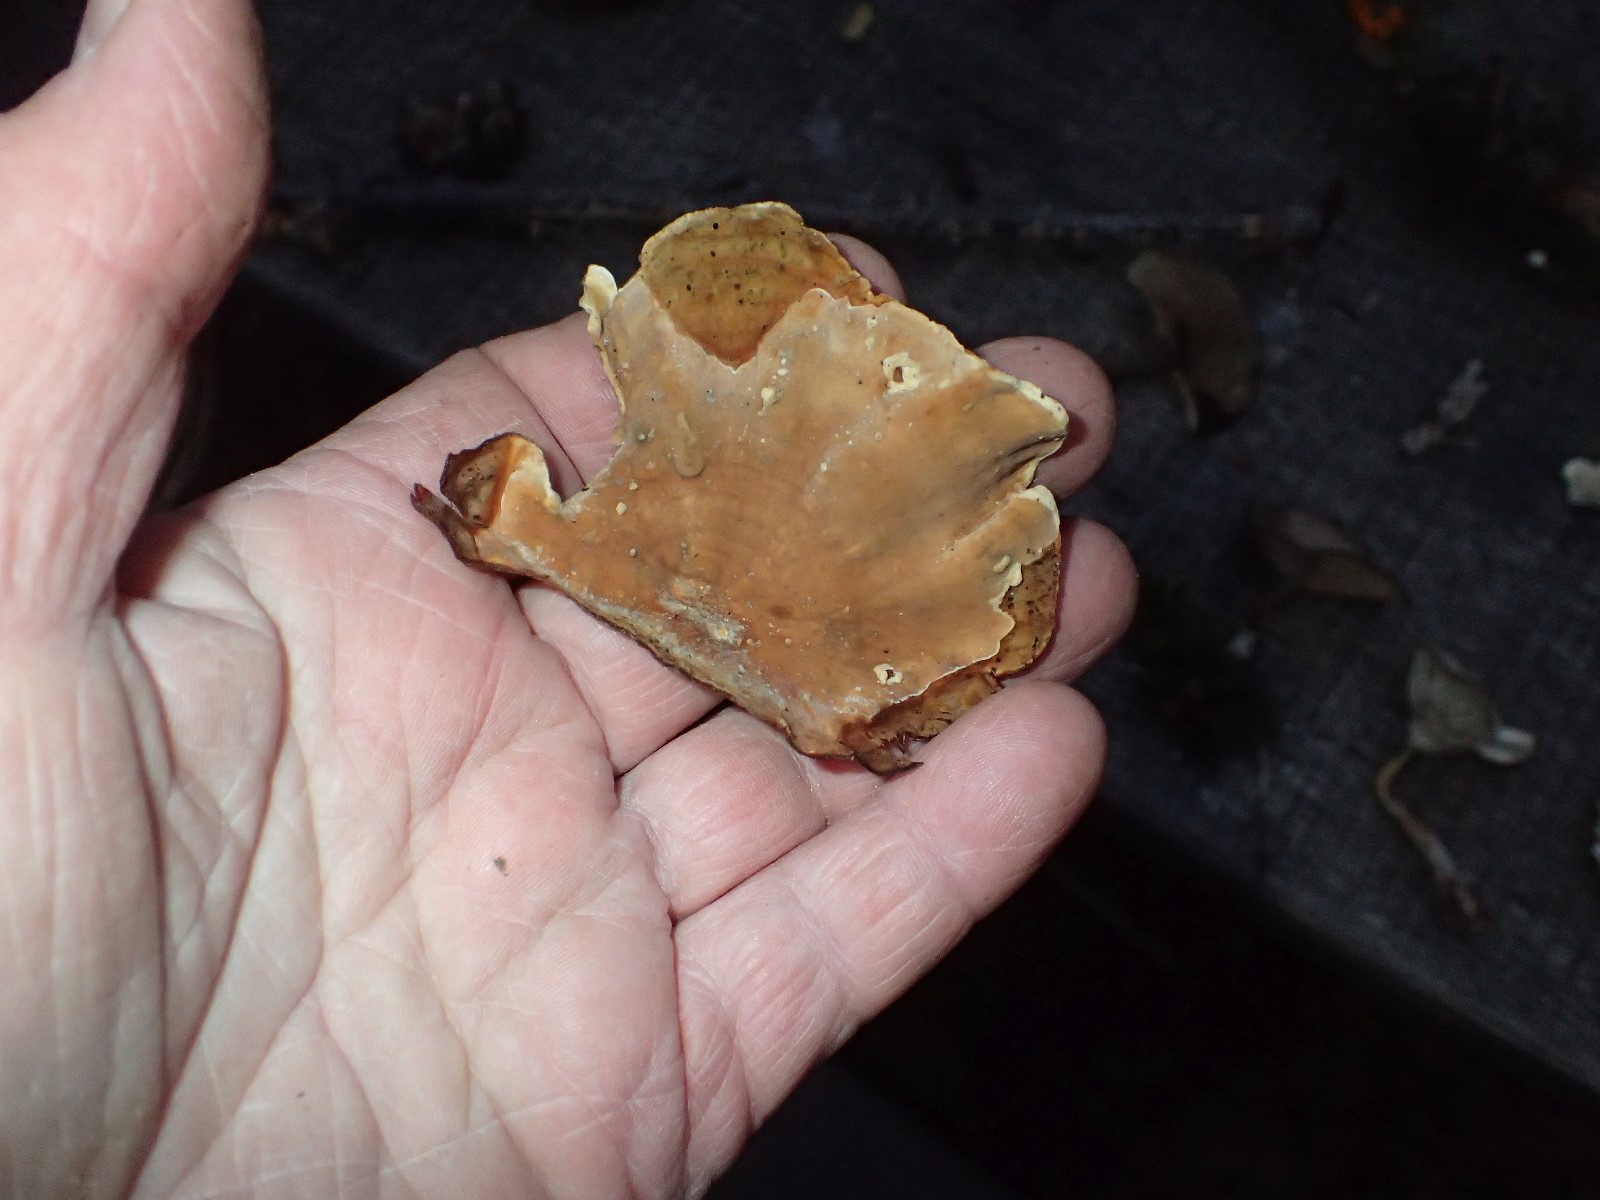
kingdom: Fungi
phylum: Basidiomycota
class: Agaricomycetes
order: Russulales
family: Stereaceae
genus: Stereum
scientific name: Stereum subtomentosum
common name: smuk lædersvamp
